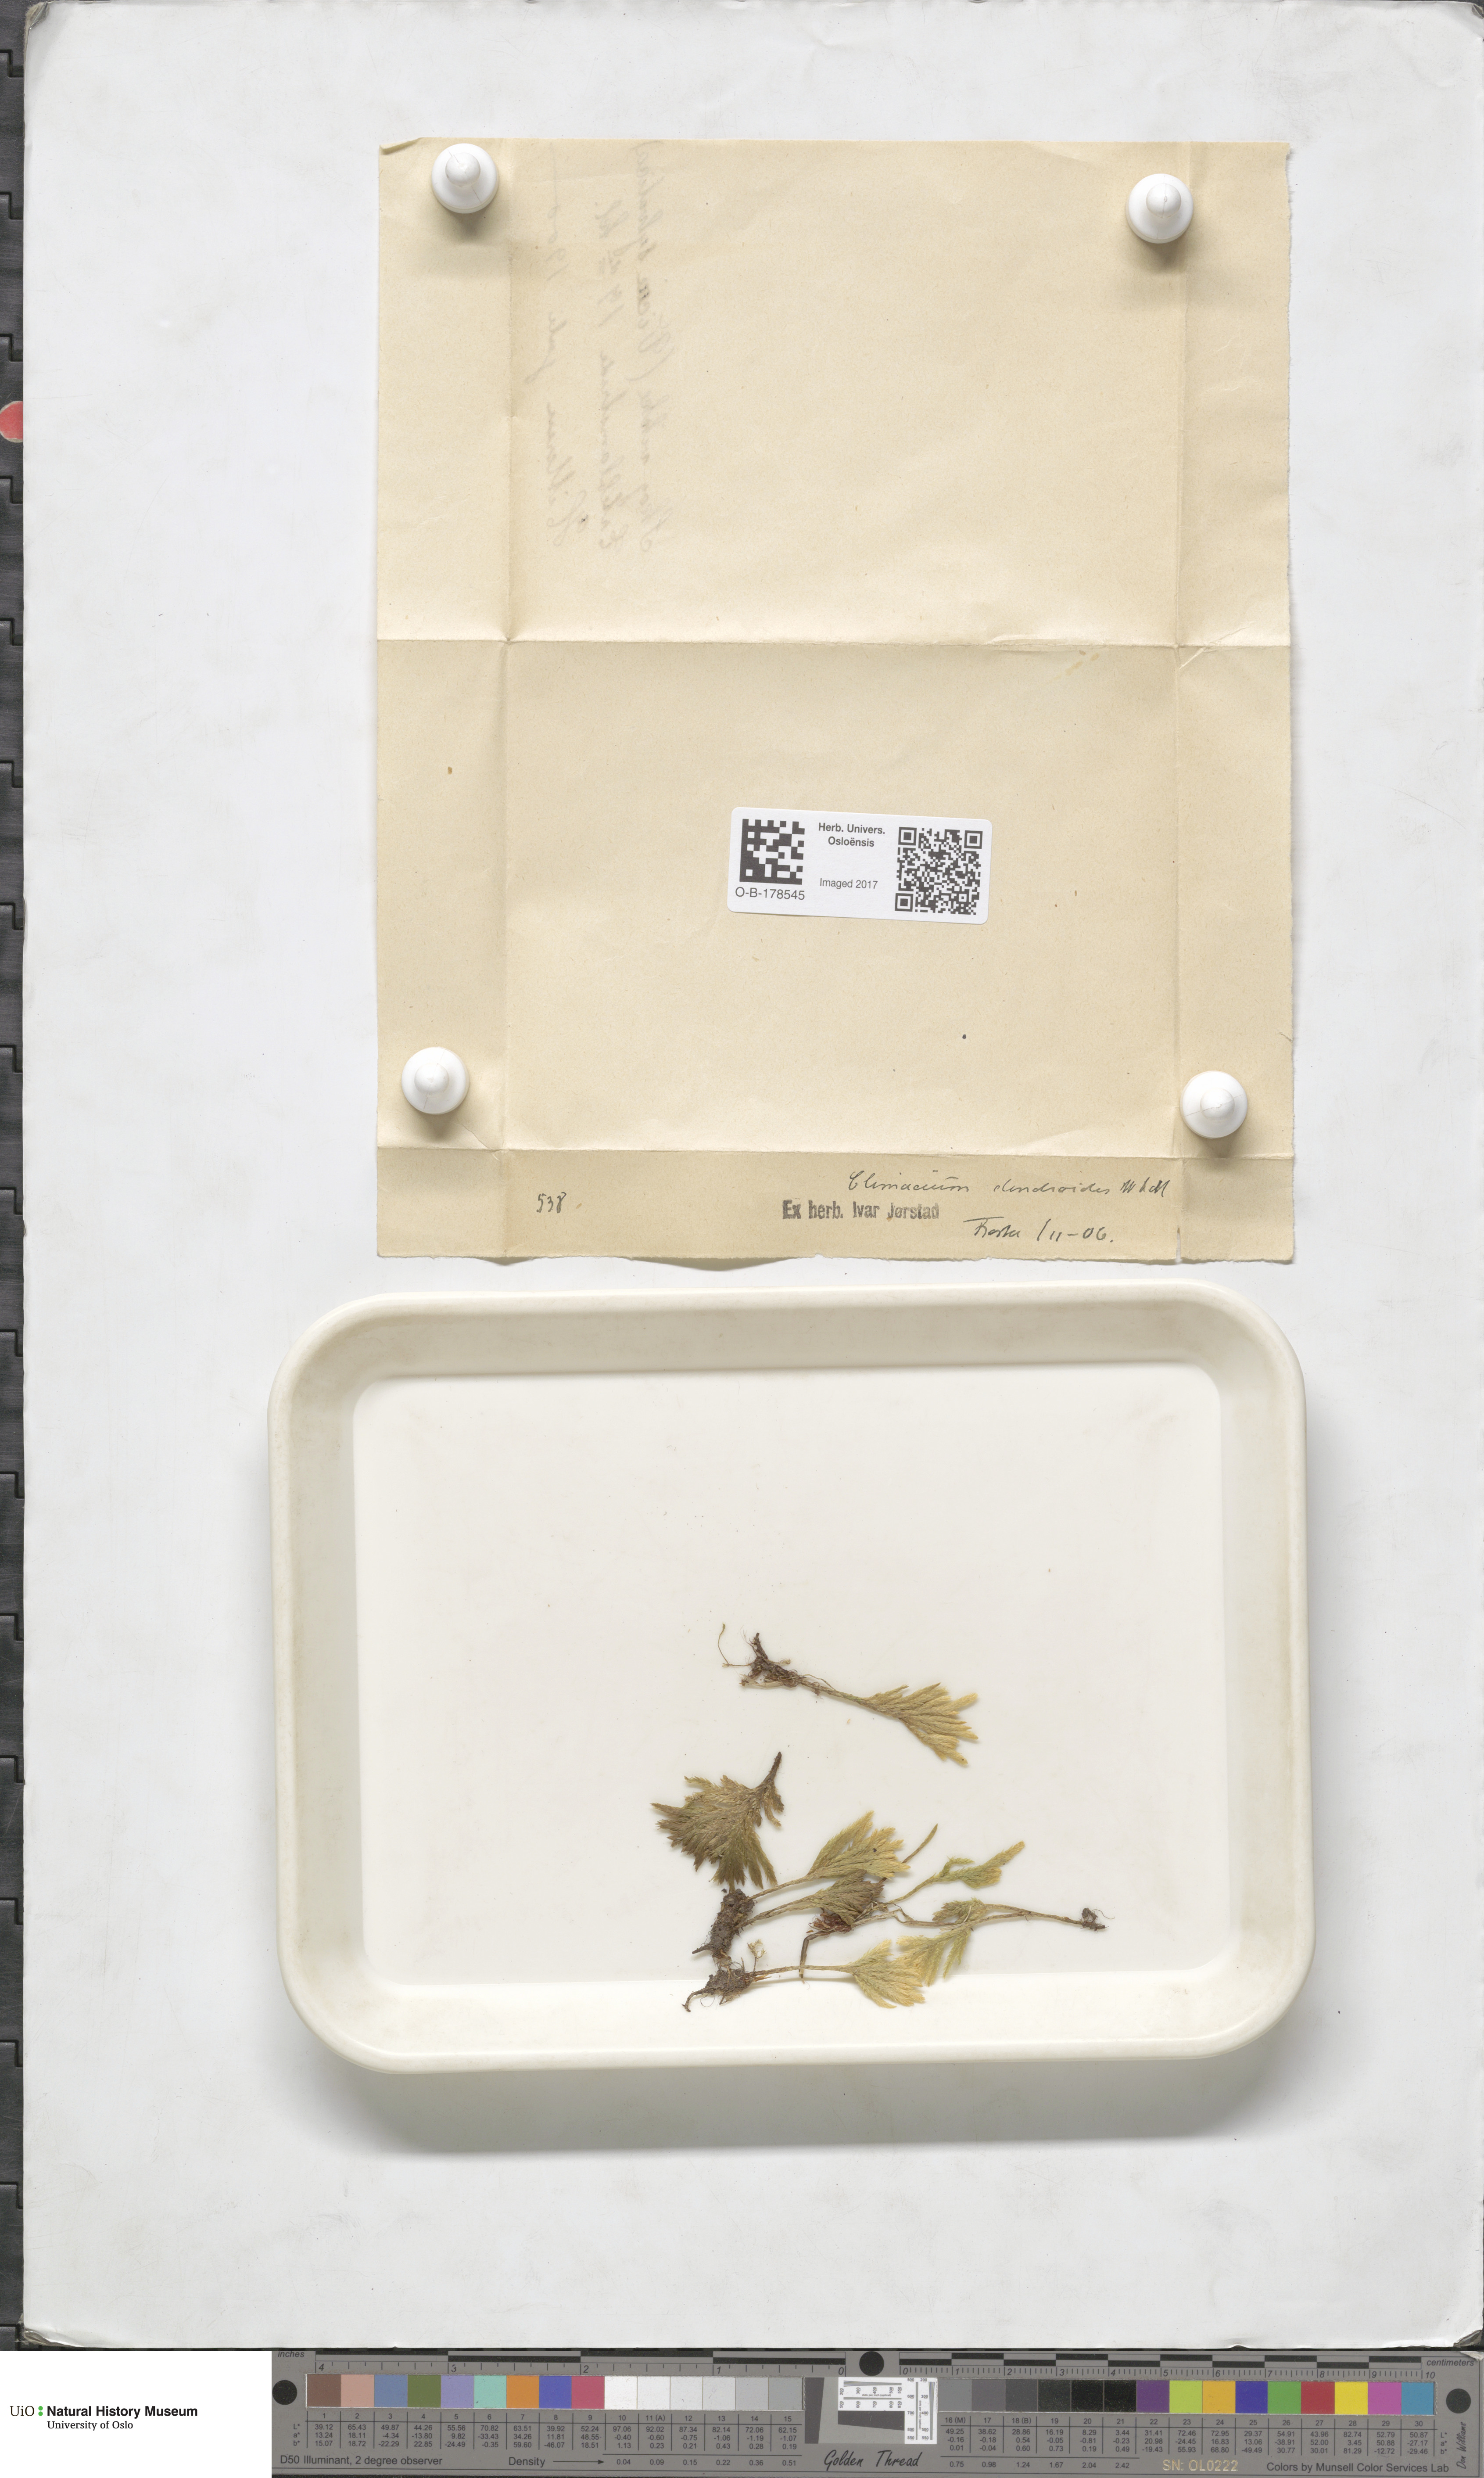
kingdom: Plantae
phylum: Bryophyta
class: Bryopsida
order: Hypnales
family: Climaciaceae
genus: Climacium
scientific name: Climacium dendroides
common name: Northern tree moss
